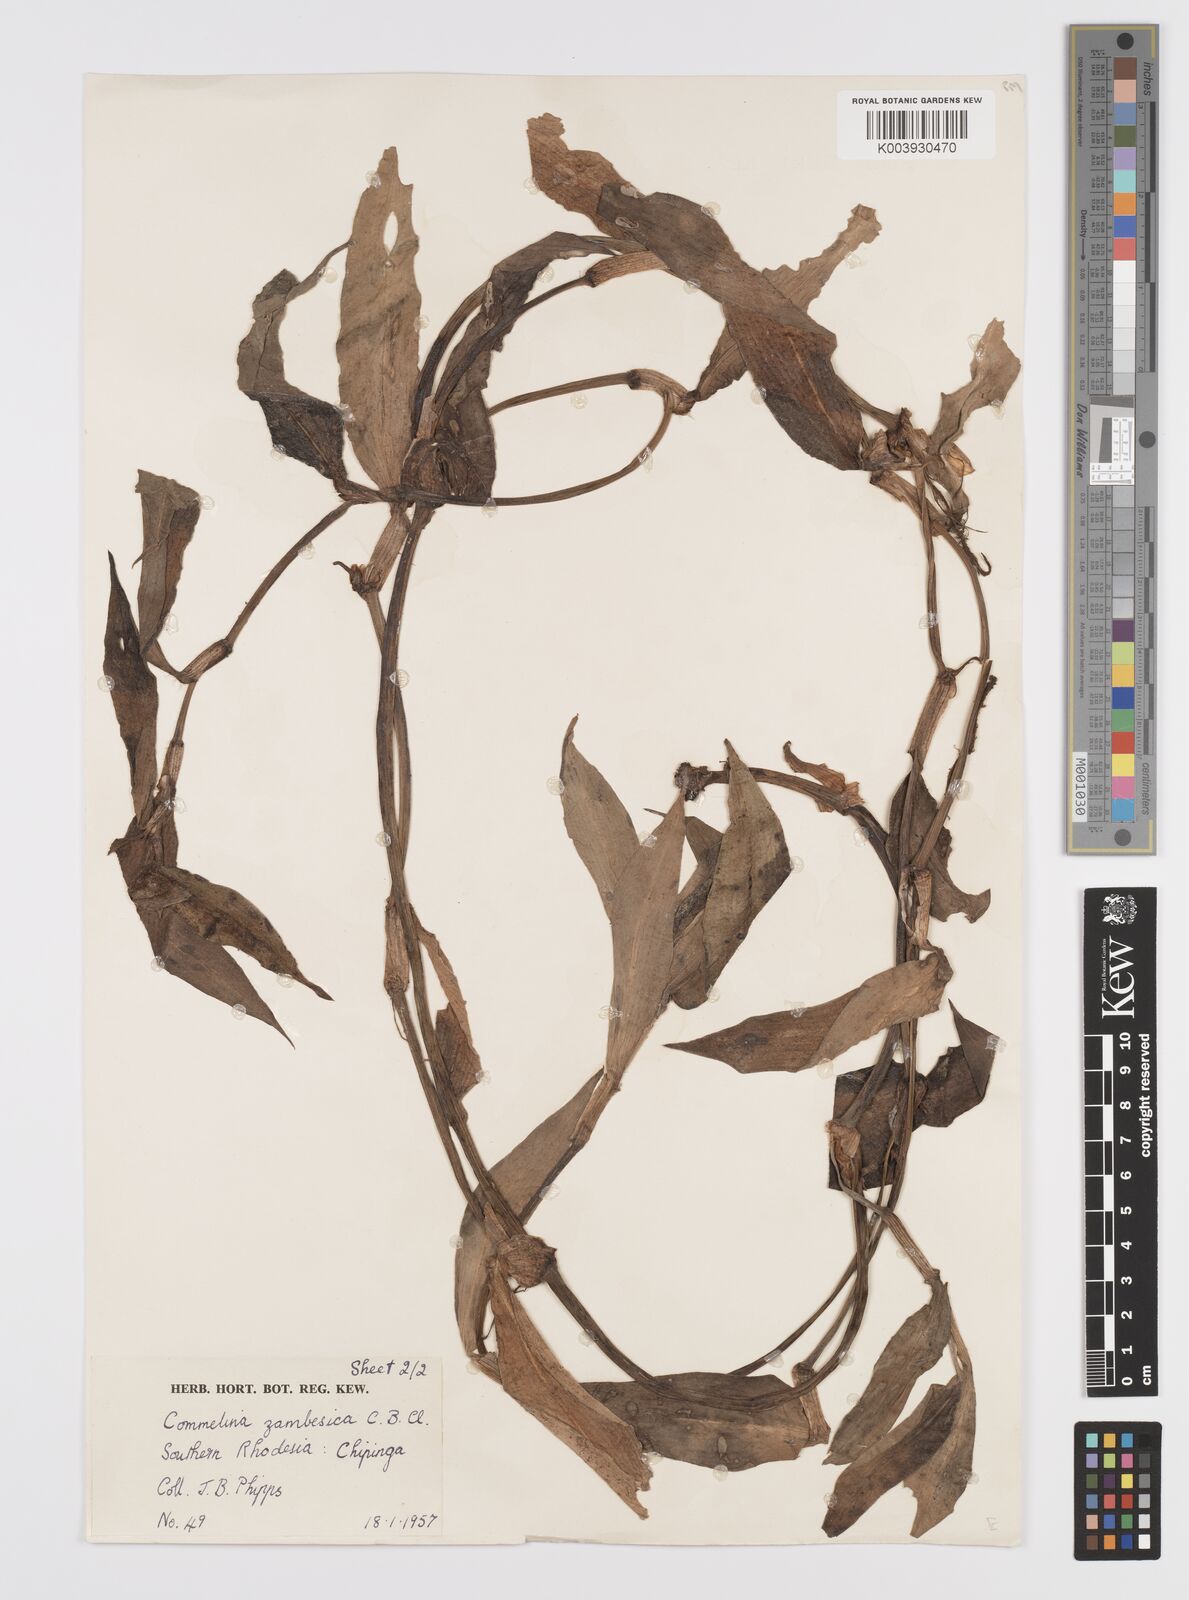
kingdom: Plantae
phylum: Tracheophyta
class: Liliopsida
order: Commelinales
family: Commelinaceae
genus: Commelina
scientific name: Commelina zambesica
